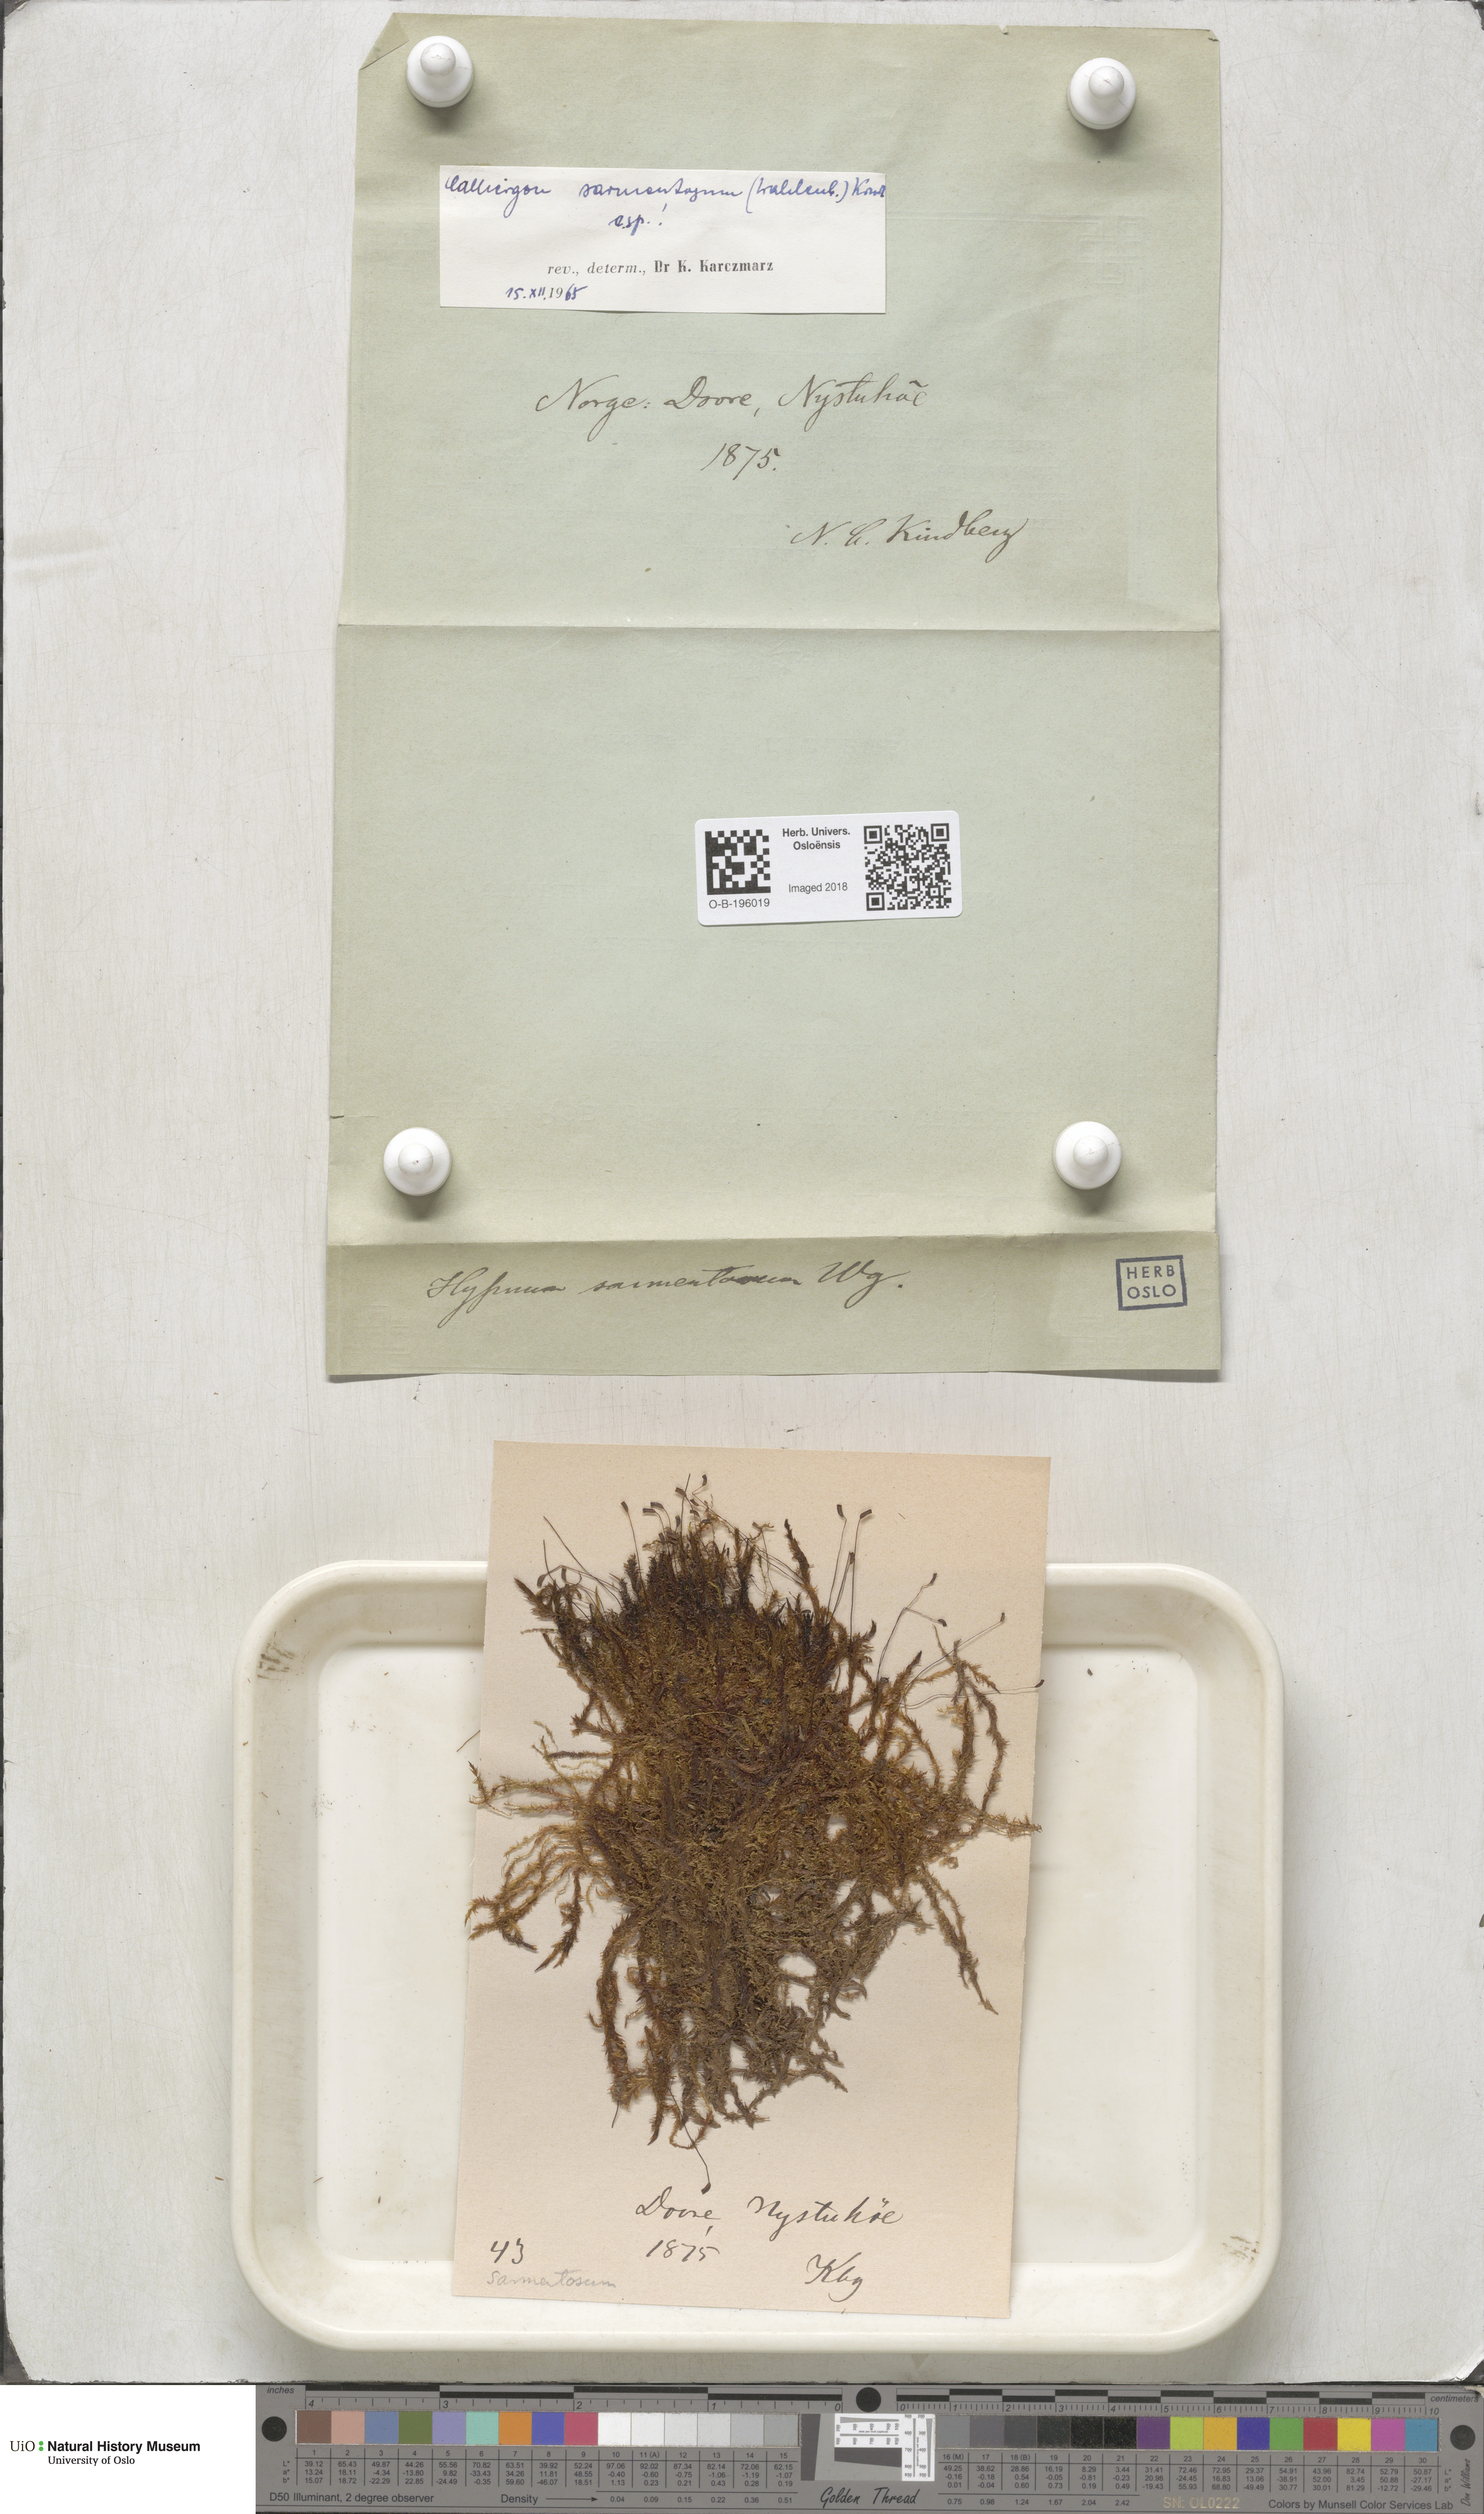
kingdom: Plantae
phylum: Bryophyta
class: Bryopsida
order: Hypnales
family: Calliergonaceae
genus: Sarmentypnum
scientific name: Sarmentypnum sarmentosum
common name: Twiggy spoon moss
